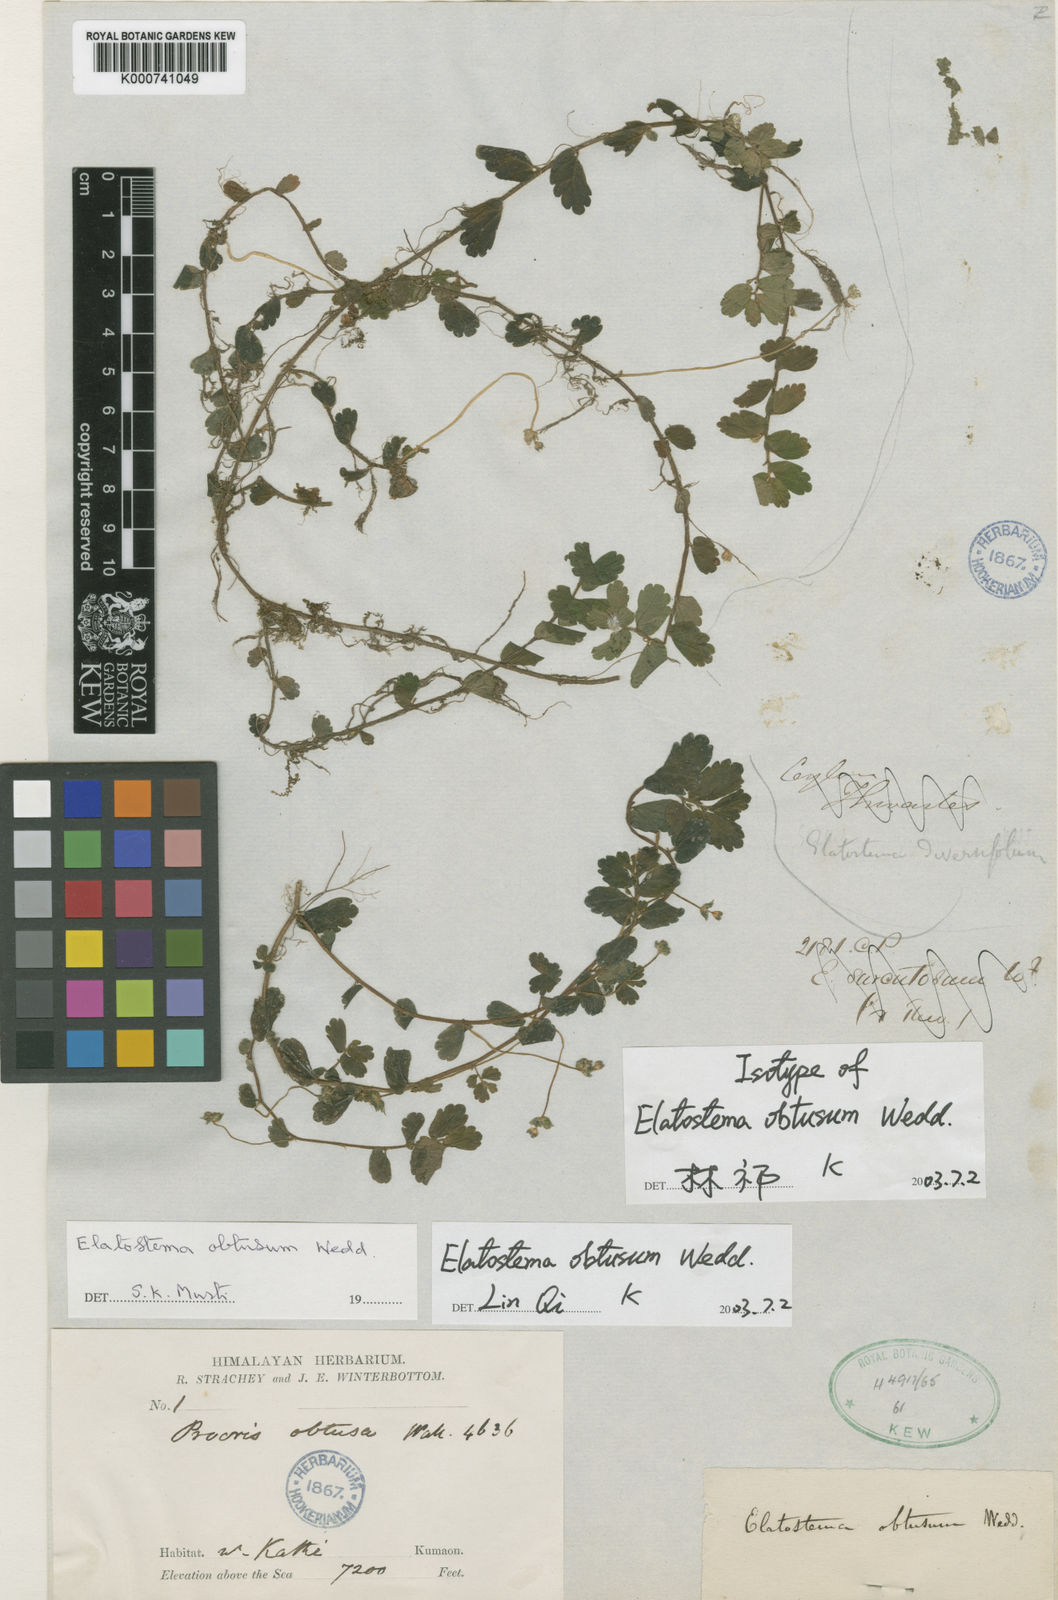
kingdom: Plantae
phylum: Tracheophyta
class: Magnoliopsida
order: Rosales
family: Urticaceae
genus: Elatostema
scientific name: Elatostema obtusum
